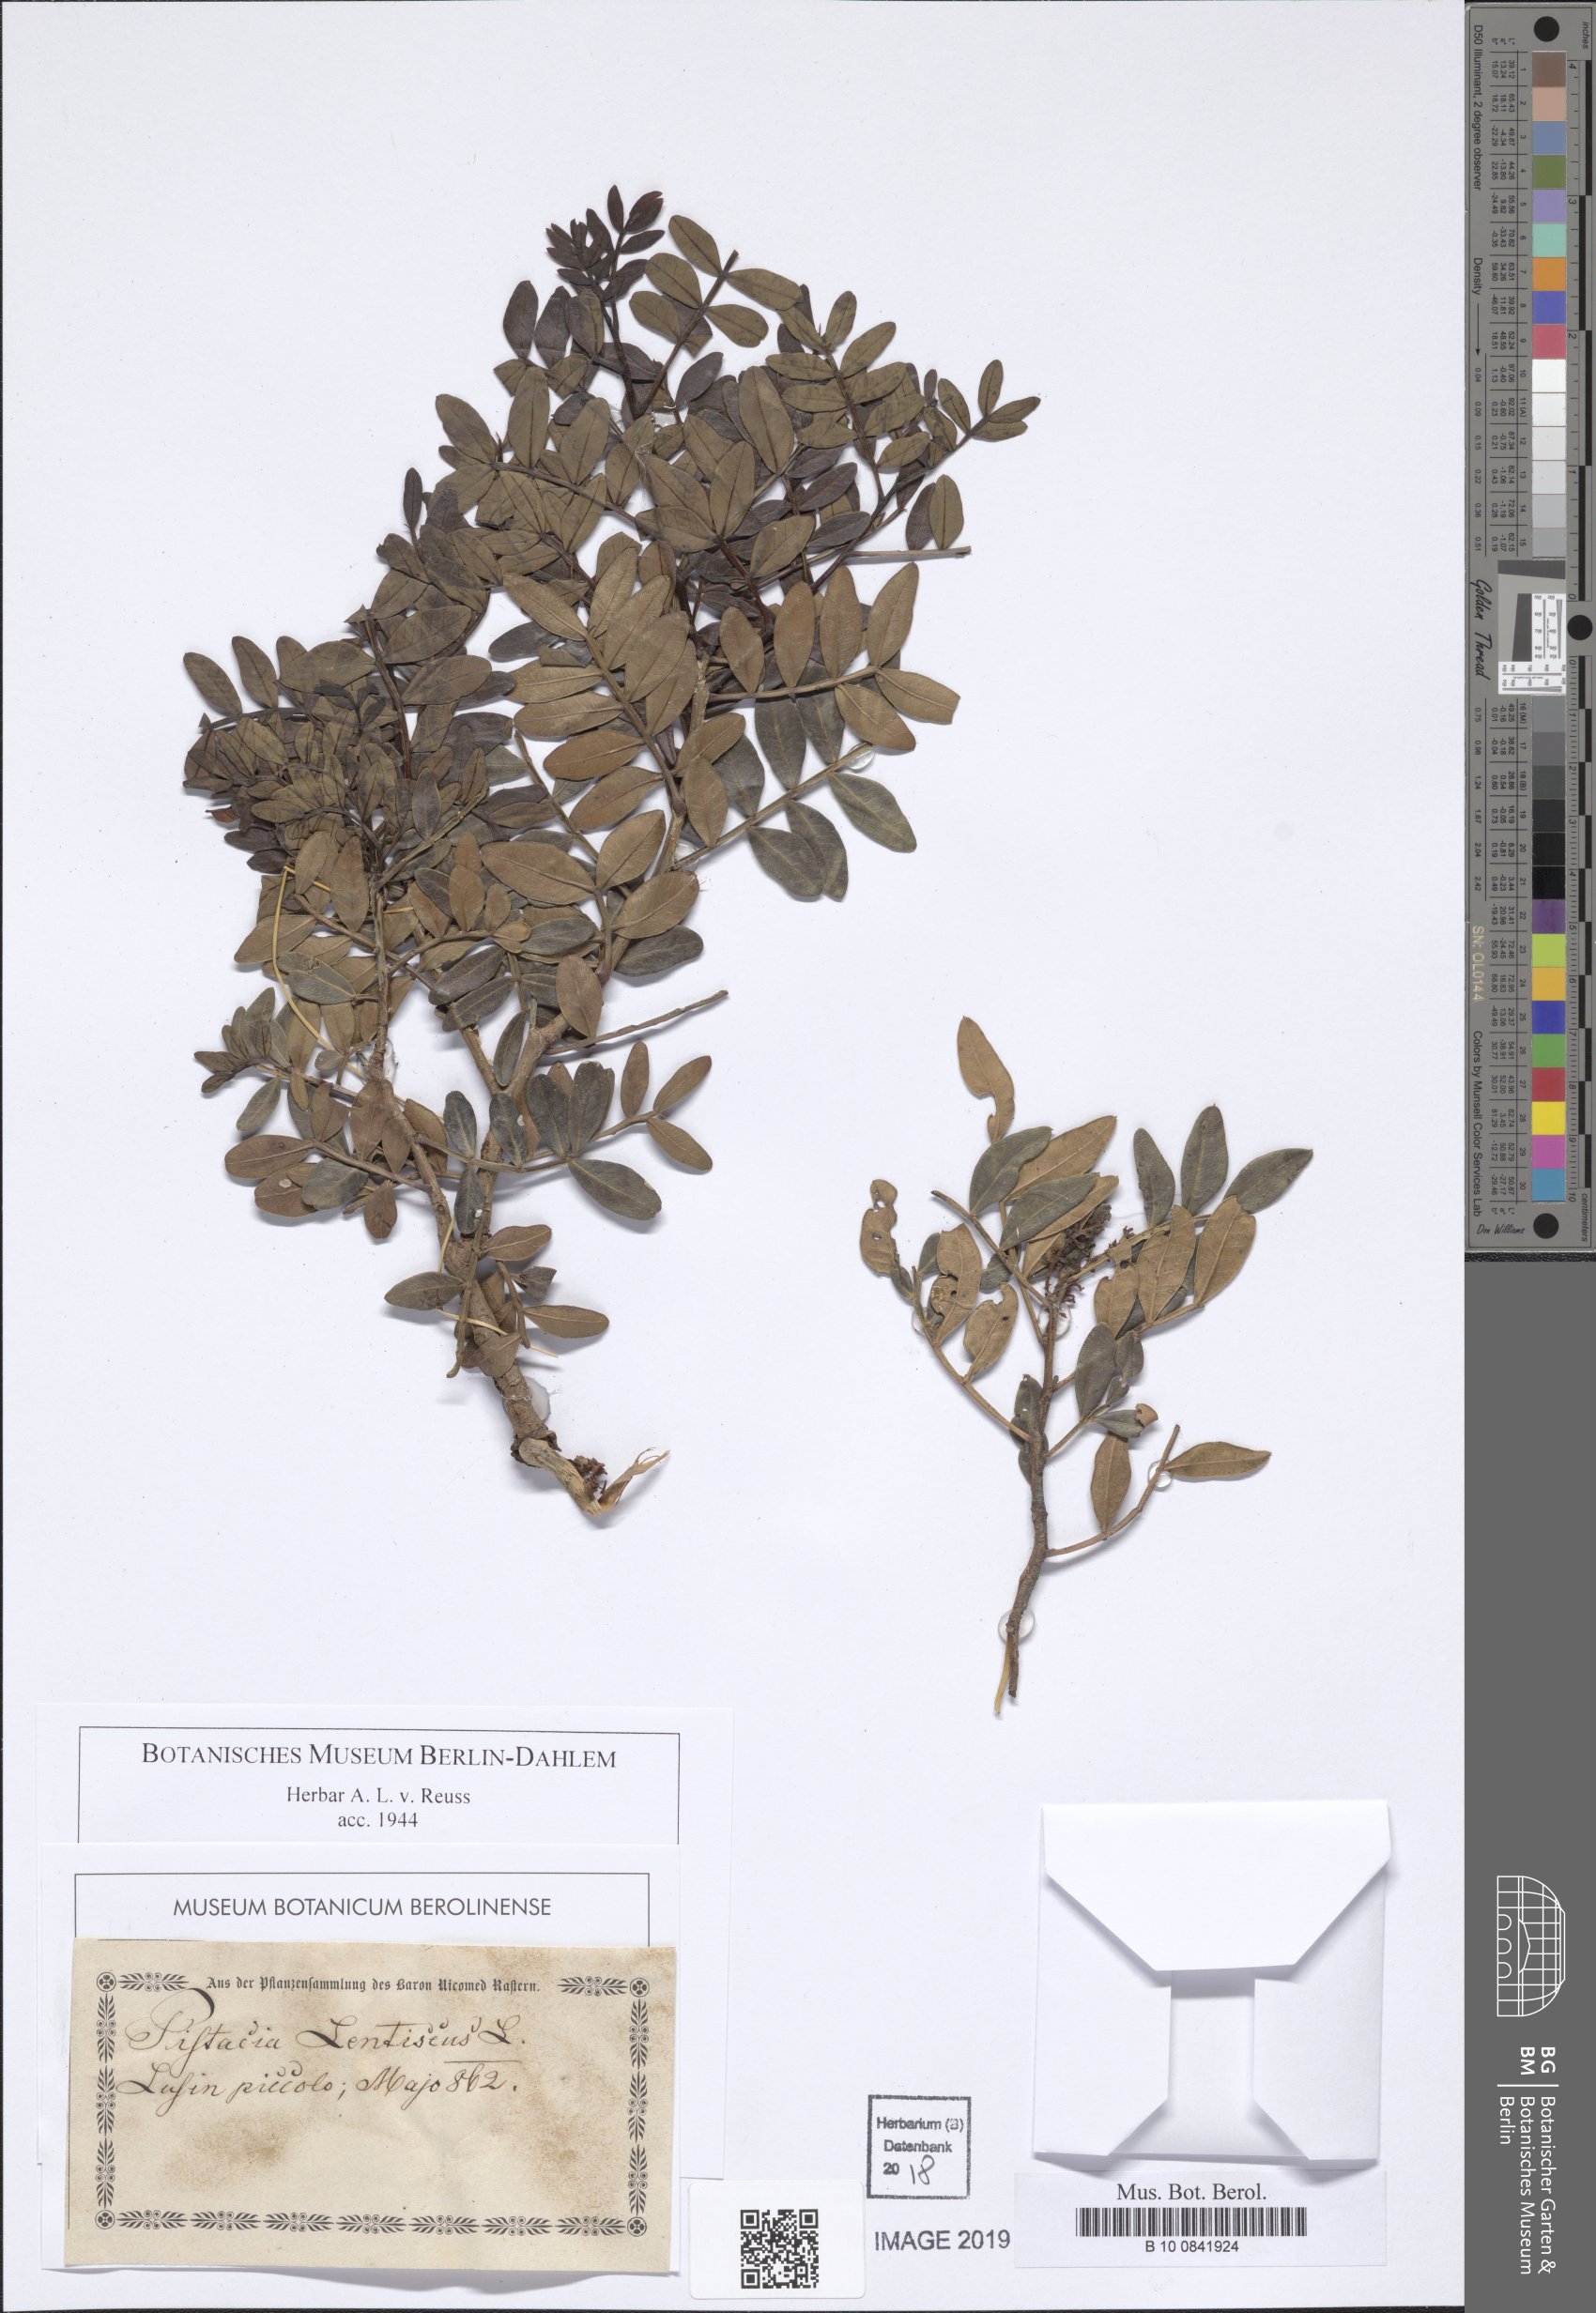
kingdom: Plantae
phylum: Tracheophyta
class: Magnoliopsida
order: Sapindales
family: Anacardiaceae
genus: Pistacia
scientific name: Pistacia lentiscus
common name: Lentisk
